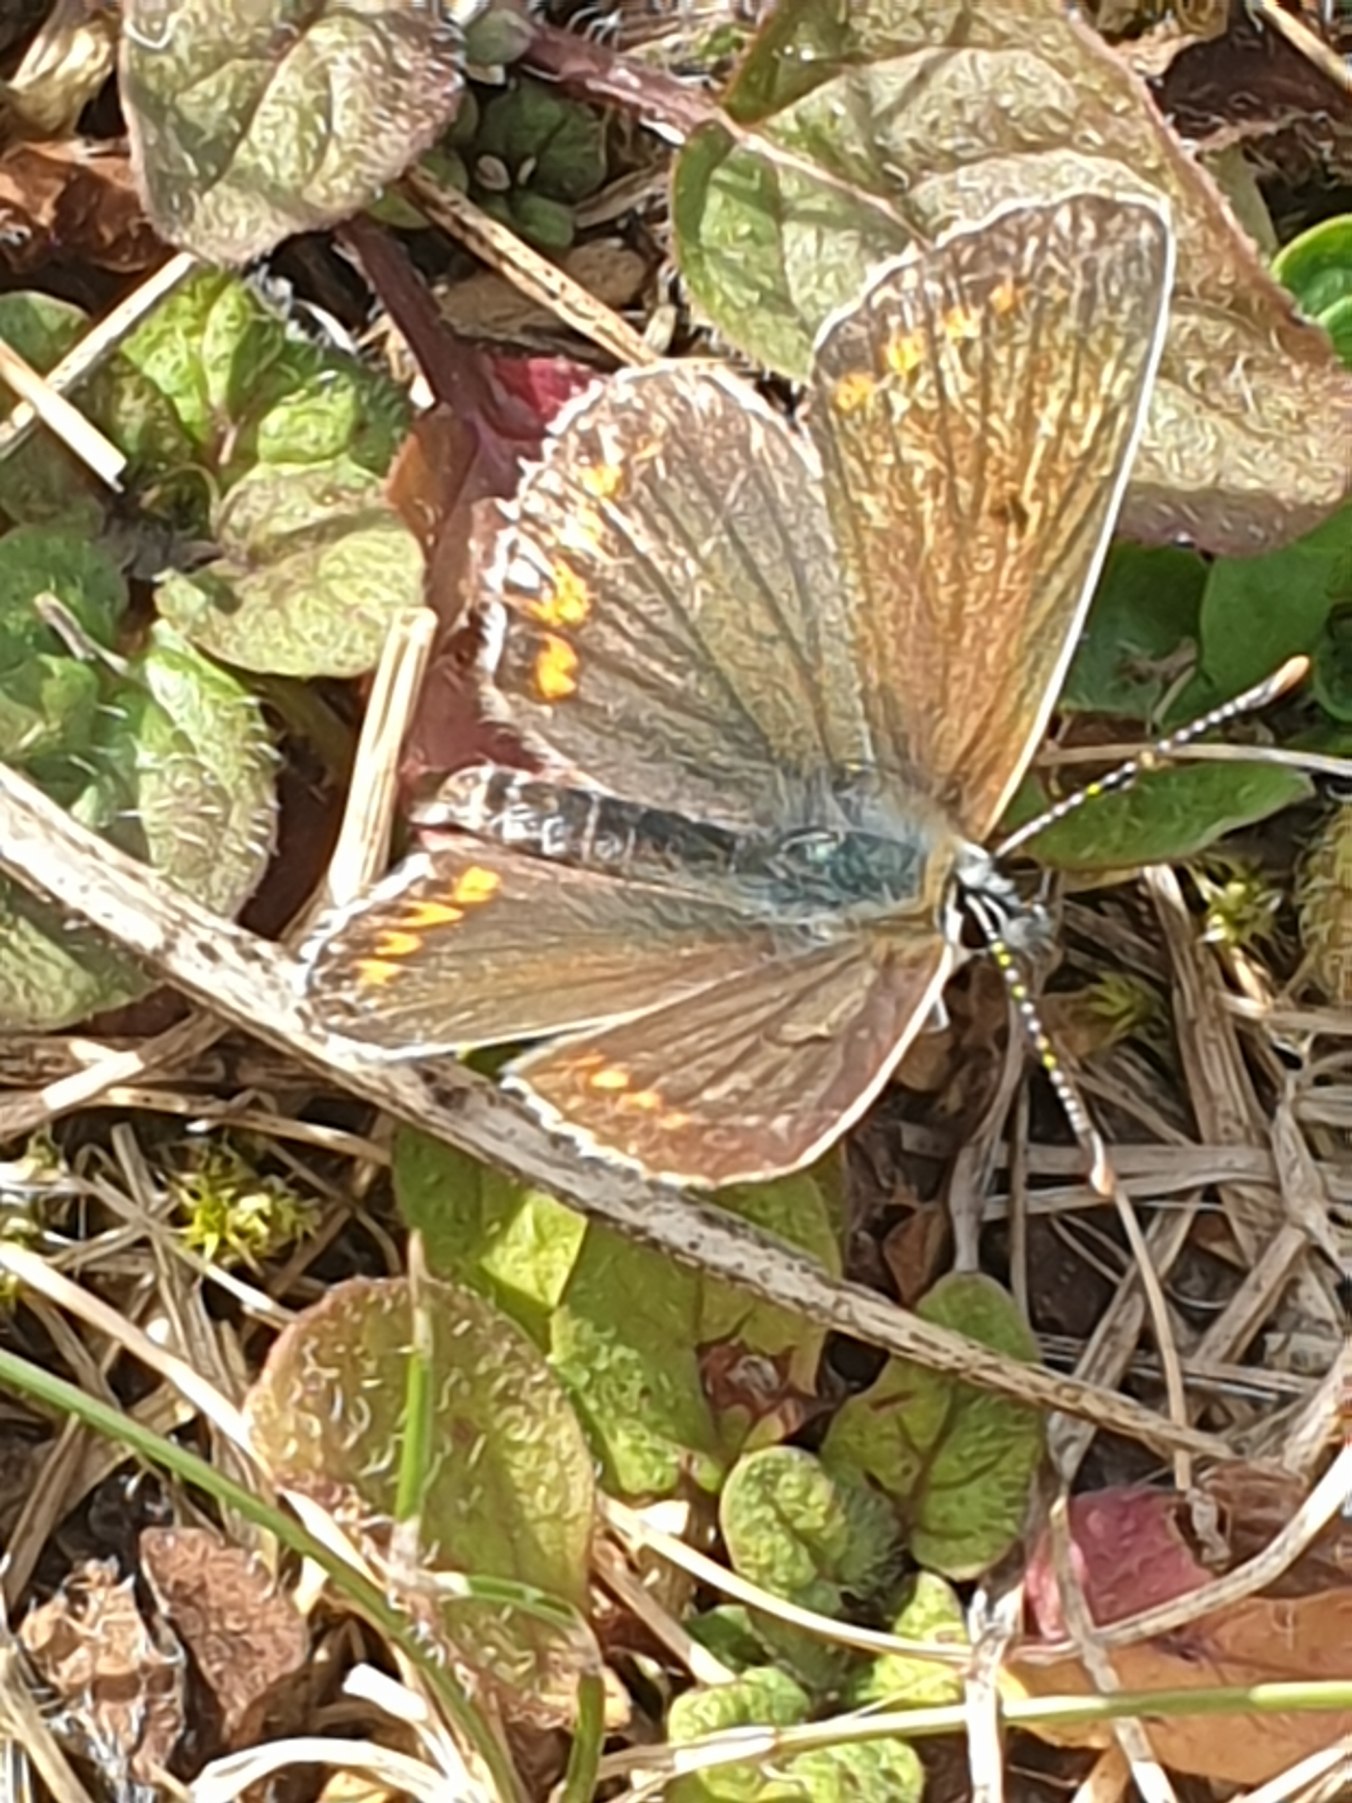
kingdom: Animalia
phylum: Arthropoda
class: Insecta
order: Lepidoptera
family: Lycaenidae
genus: Aricia
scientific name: Aricia agestis
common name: Rødplettet blåfugl
